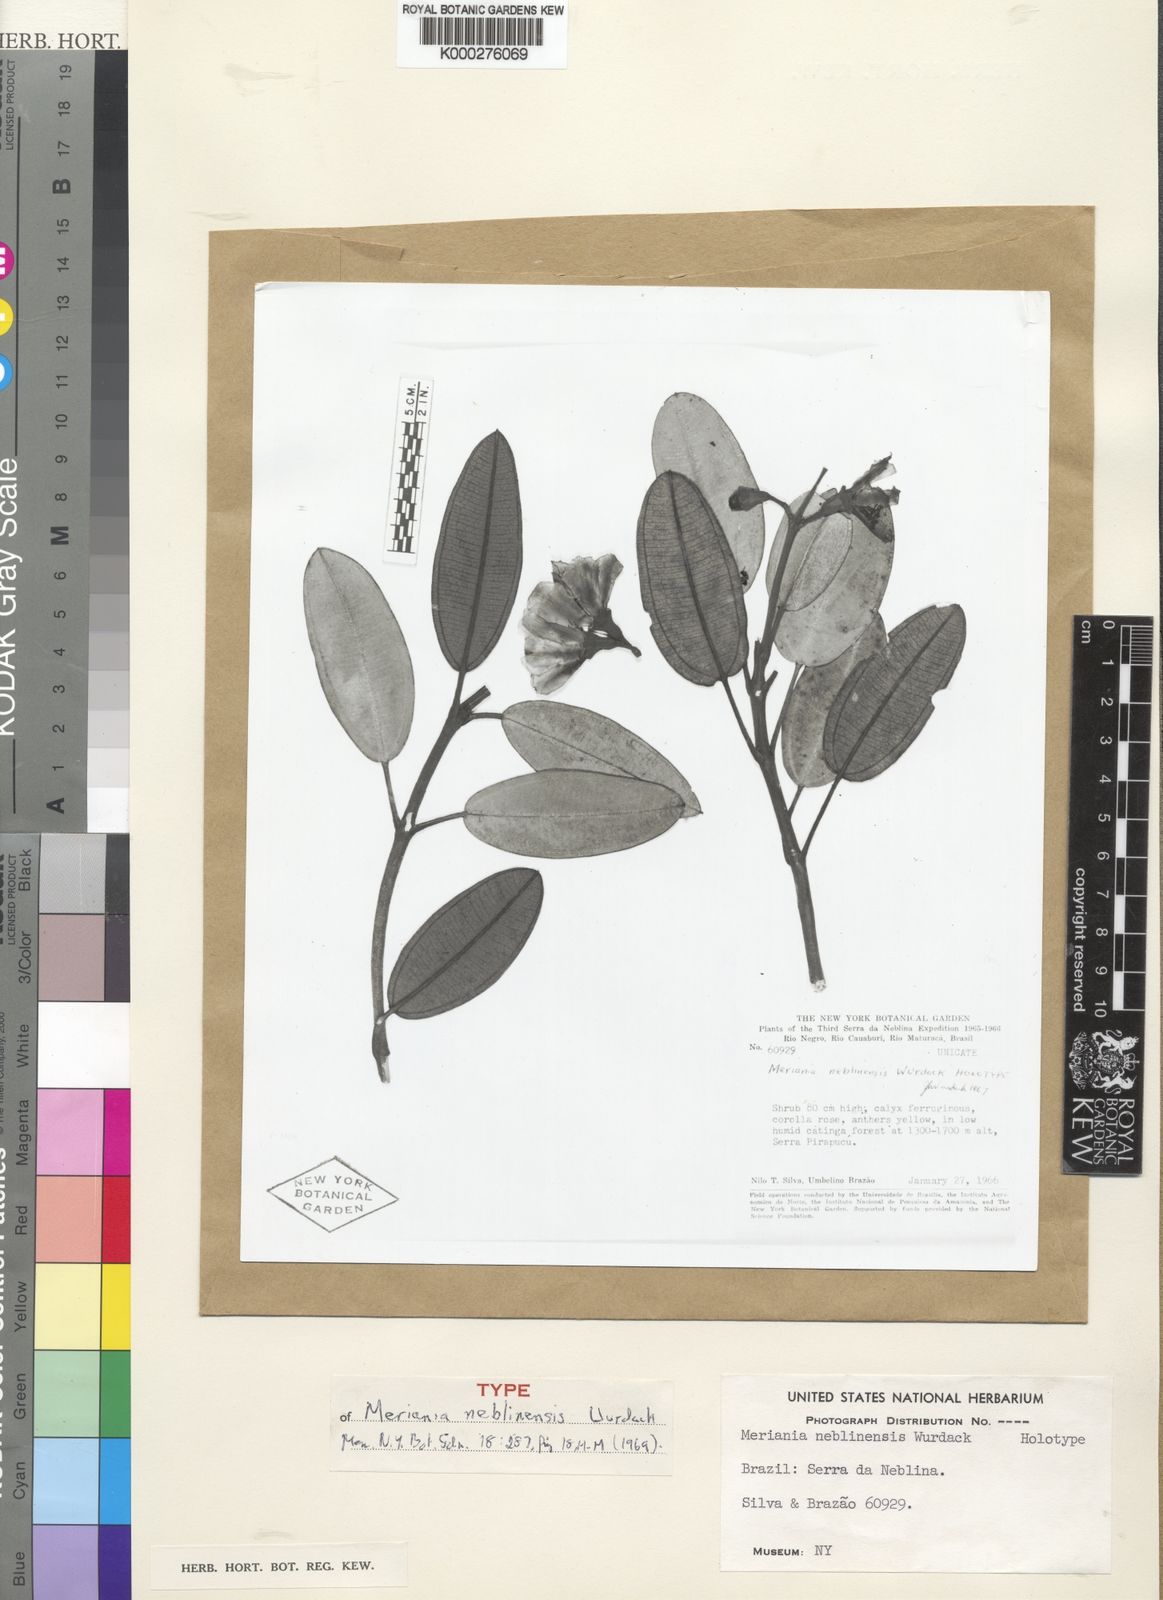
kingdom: Plantae
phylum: Tracheophyta
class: Magnoliopsida
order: Myrtales
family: Melastomataceae
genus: Meriania
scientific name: Meriania neblinensis
